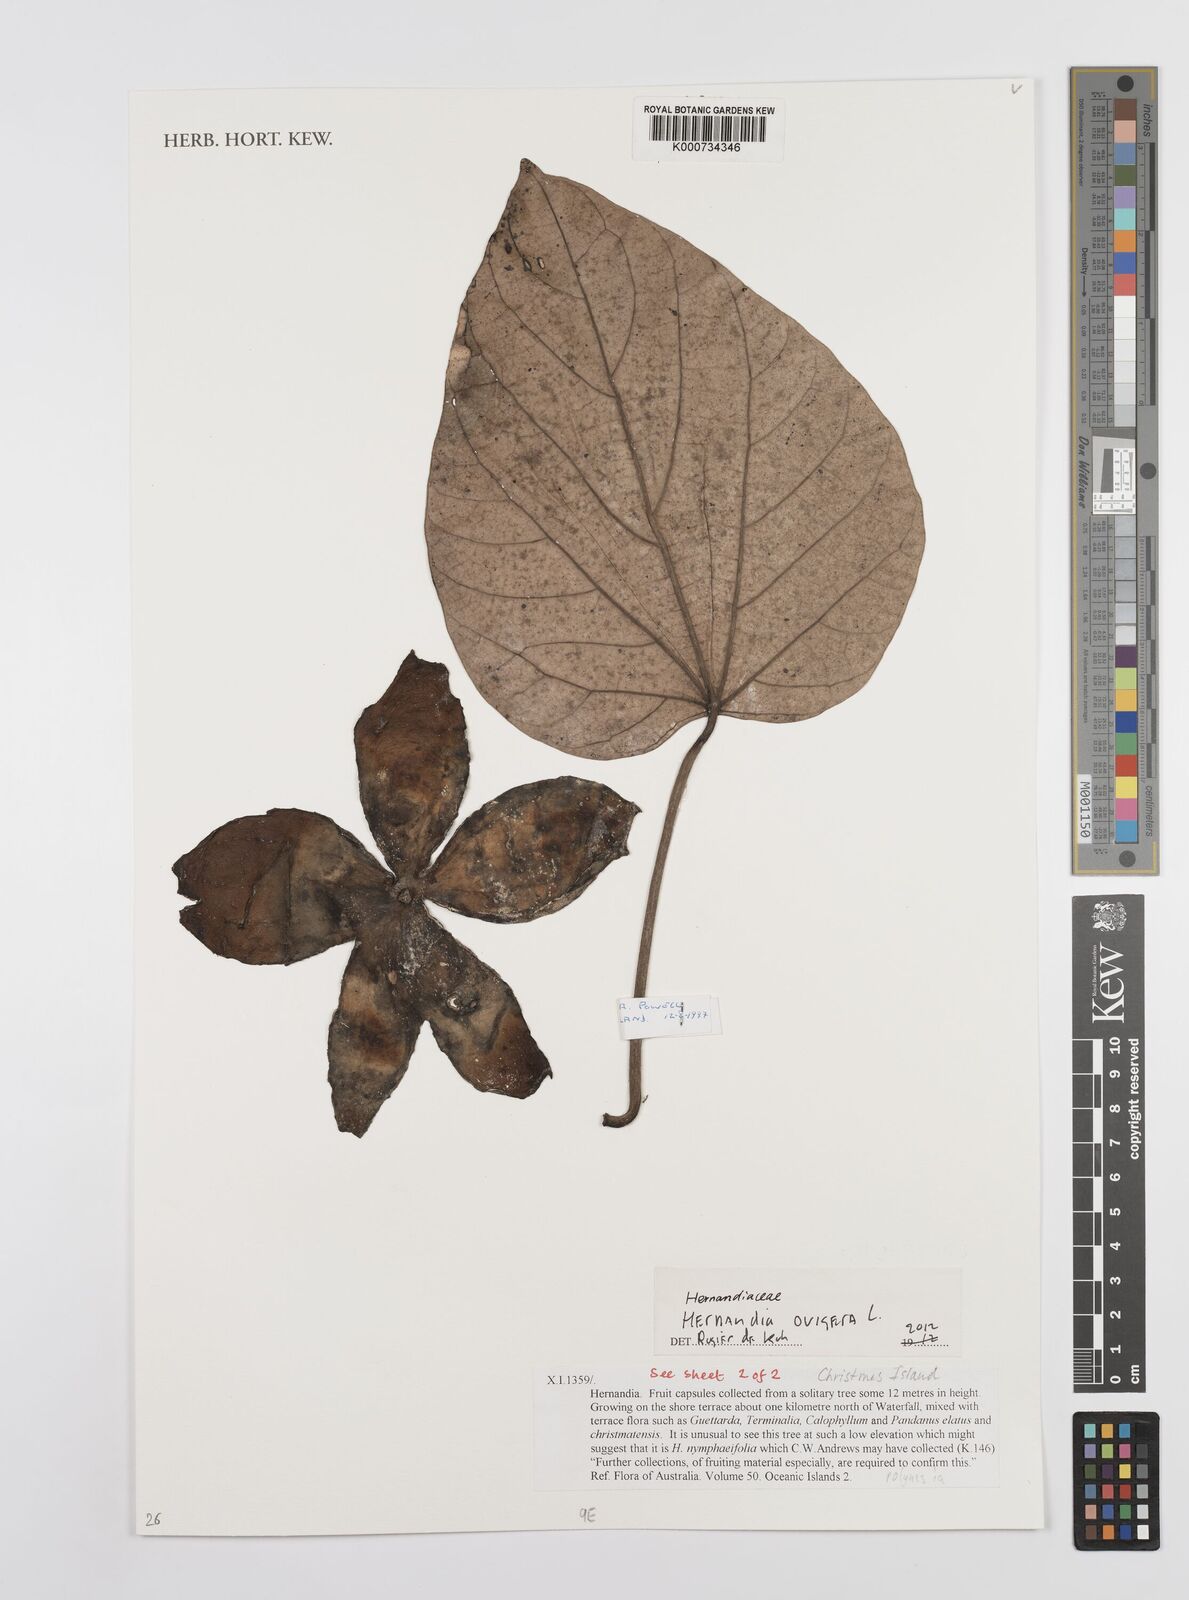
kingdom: Plantae
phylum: Tracheophyta
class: Magnoliopsida
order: Laurales
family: Hernandiaceae
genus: Hernandia
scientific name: Hernandia ovigera
